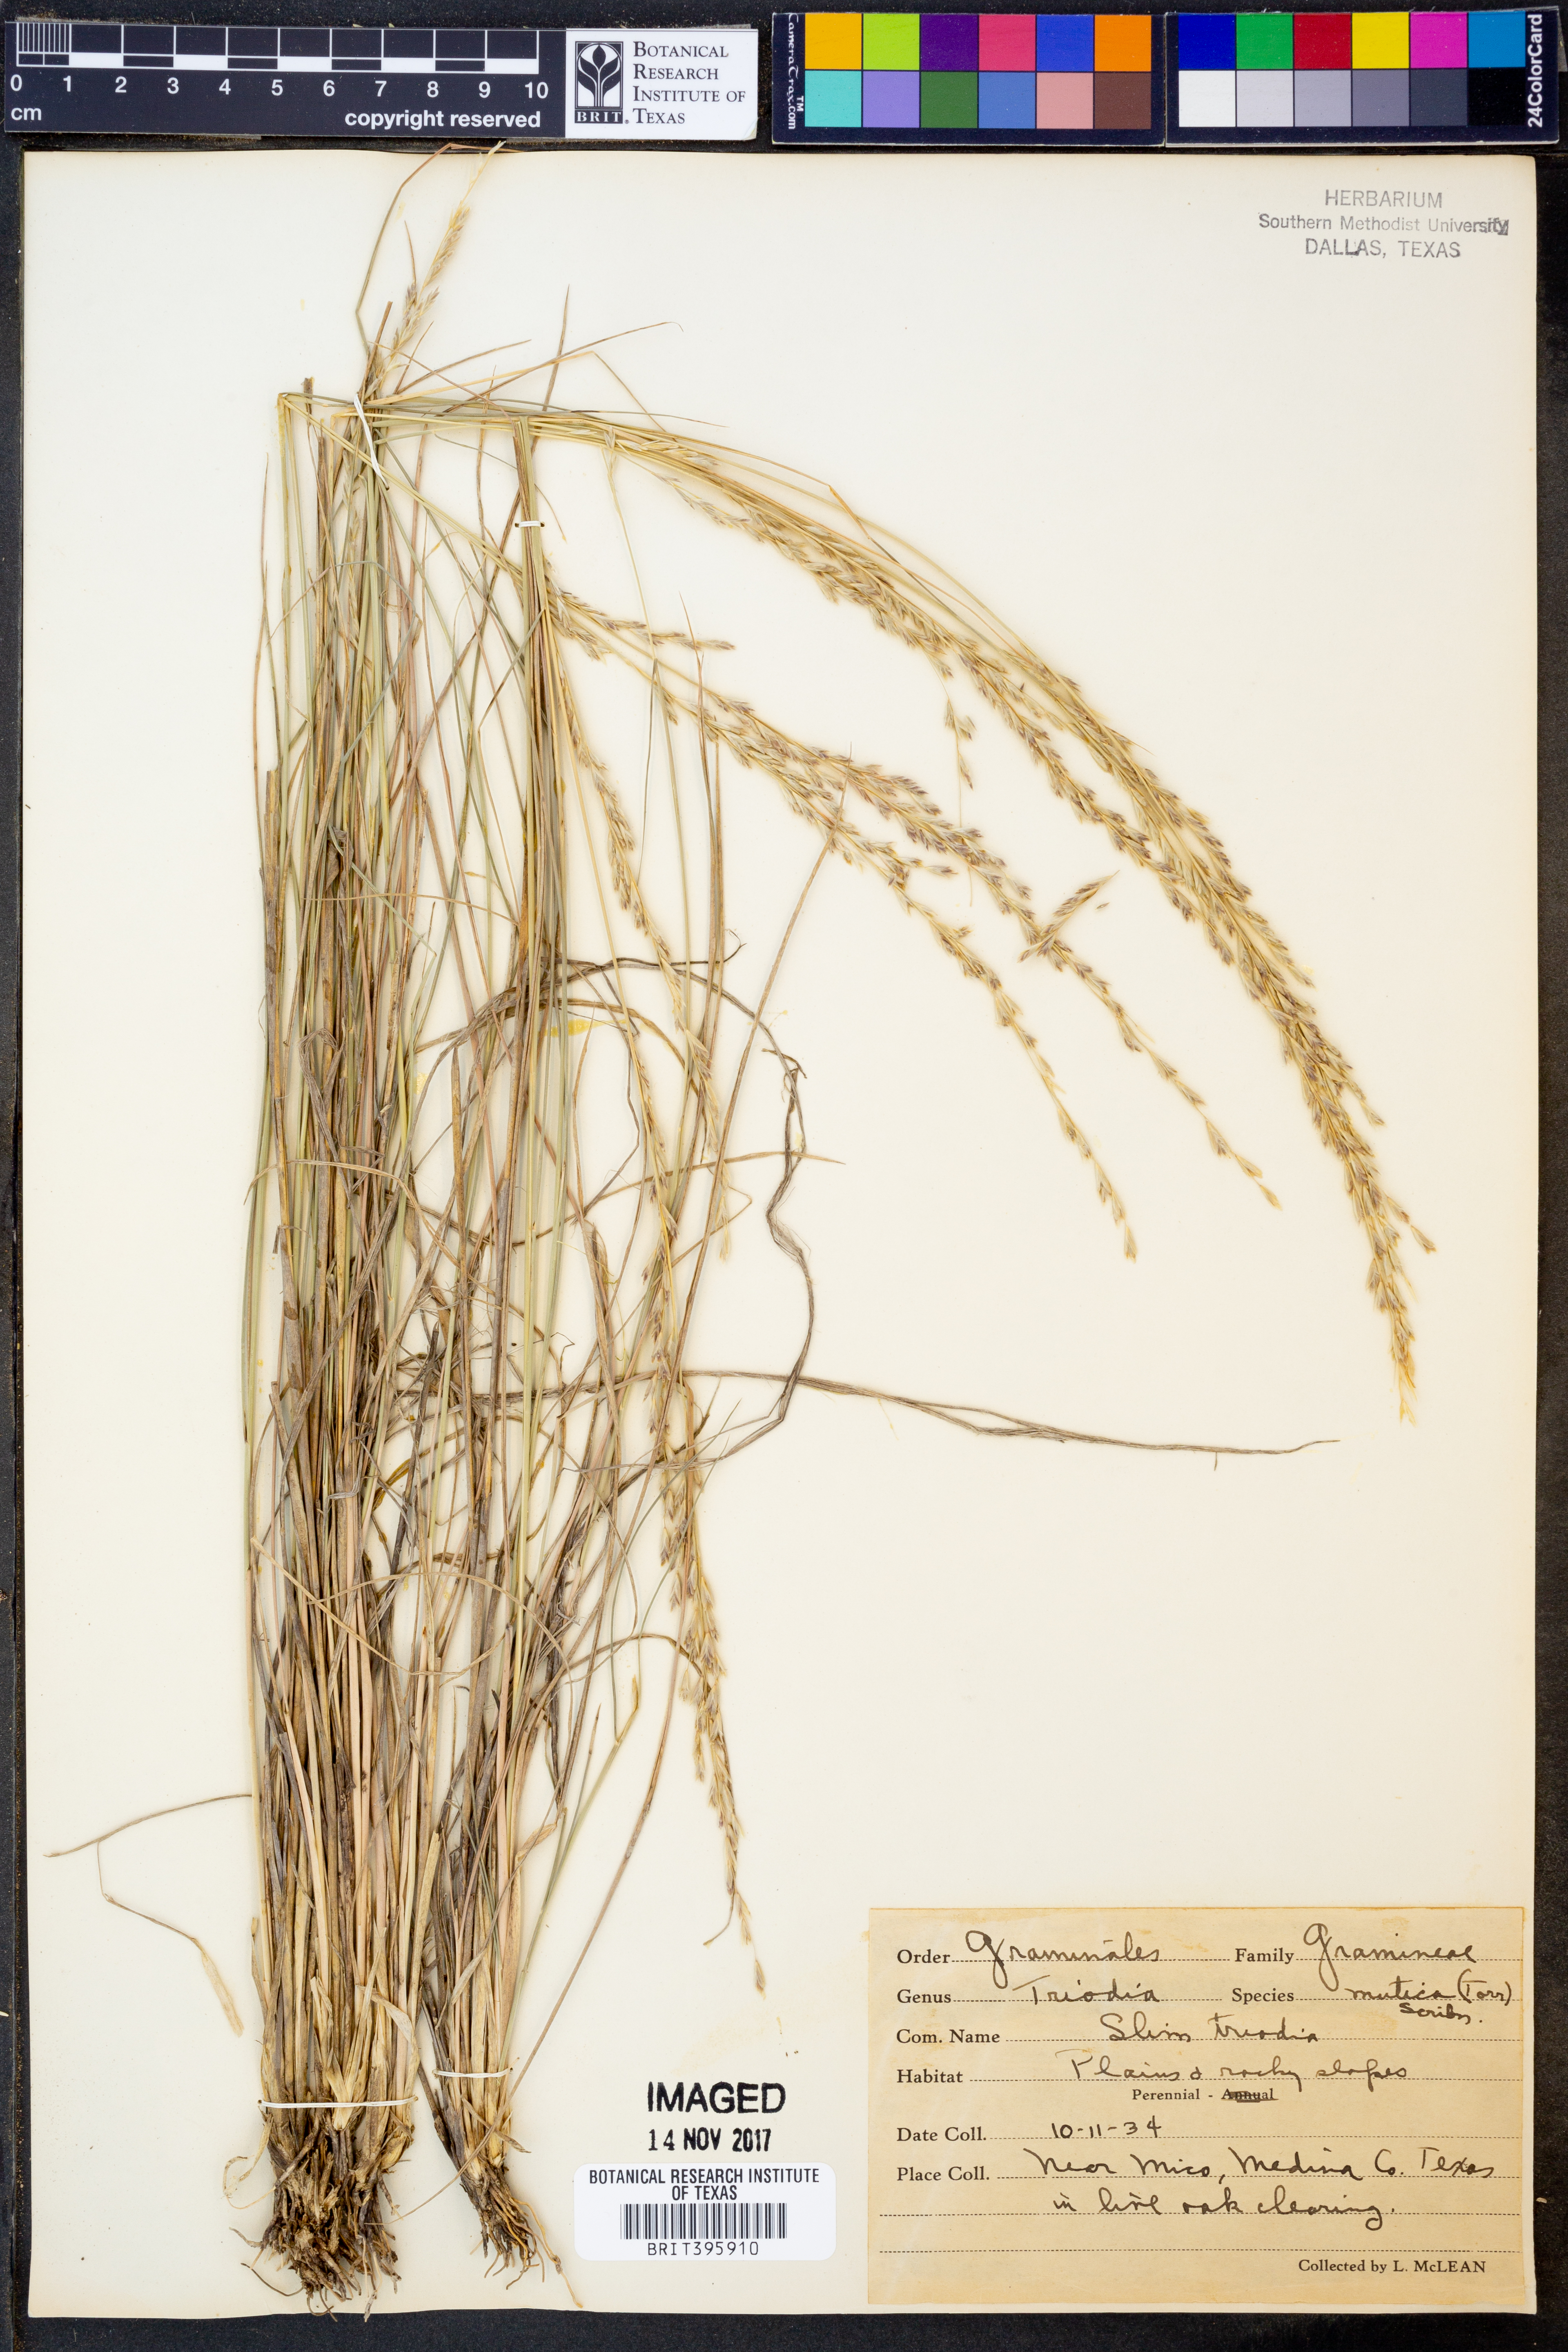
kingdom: Plantae
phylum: Tracheophyta
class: Liliopsida
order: Poales
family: Poaceae
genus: Tridentopsis
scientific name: Tridentopsis mutica
